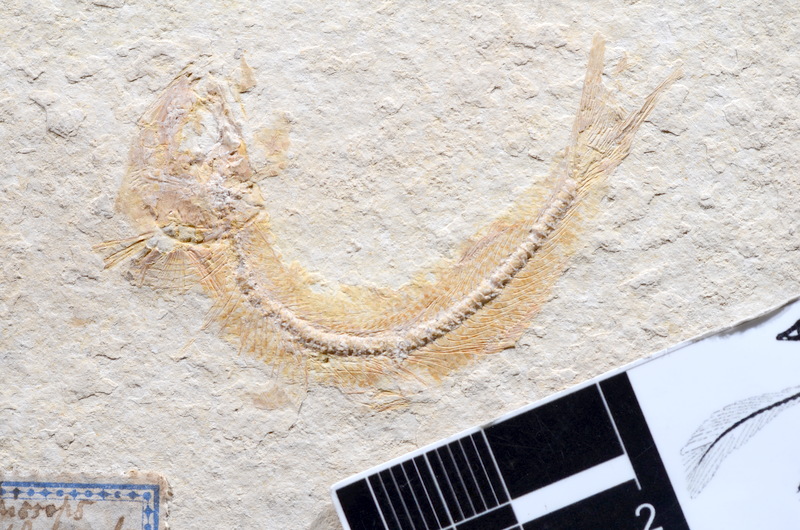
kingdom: Animalia
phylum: Chordata
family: Allothrissopidae
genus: Allothrissops
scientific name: Allothrissops mesogaster
